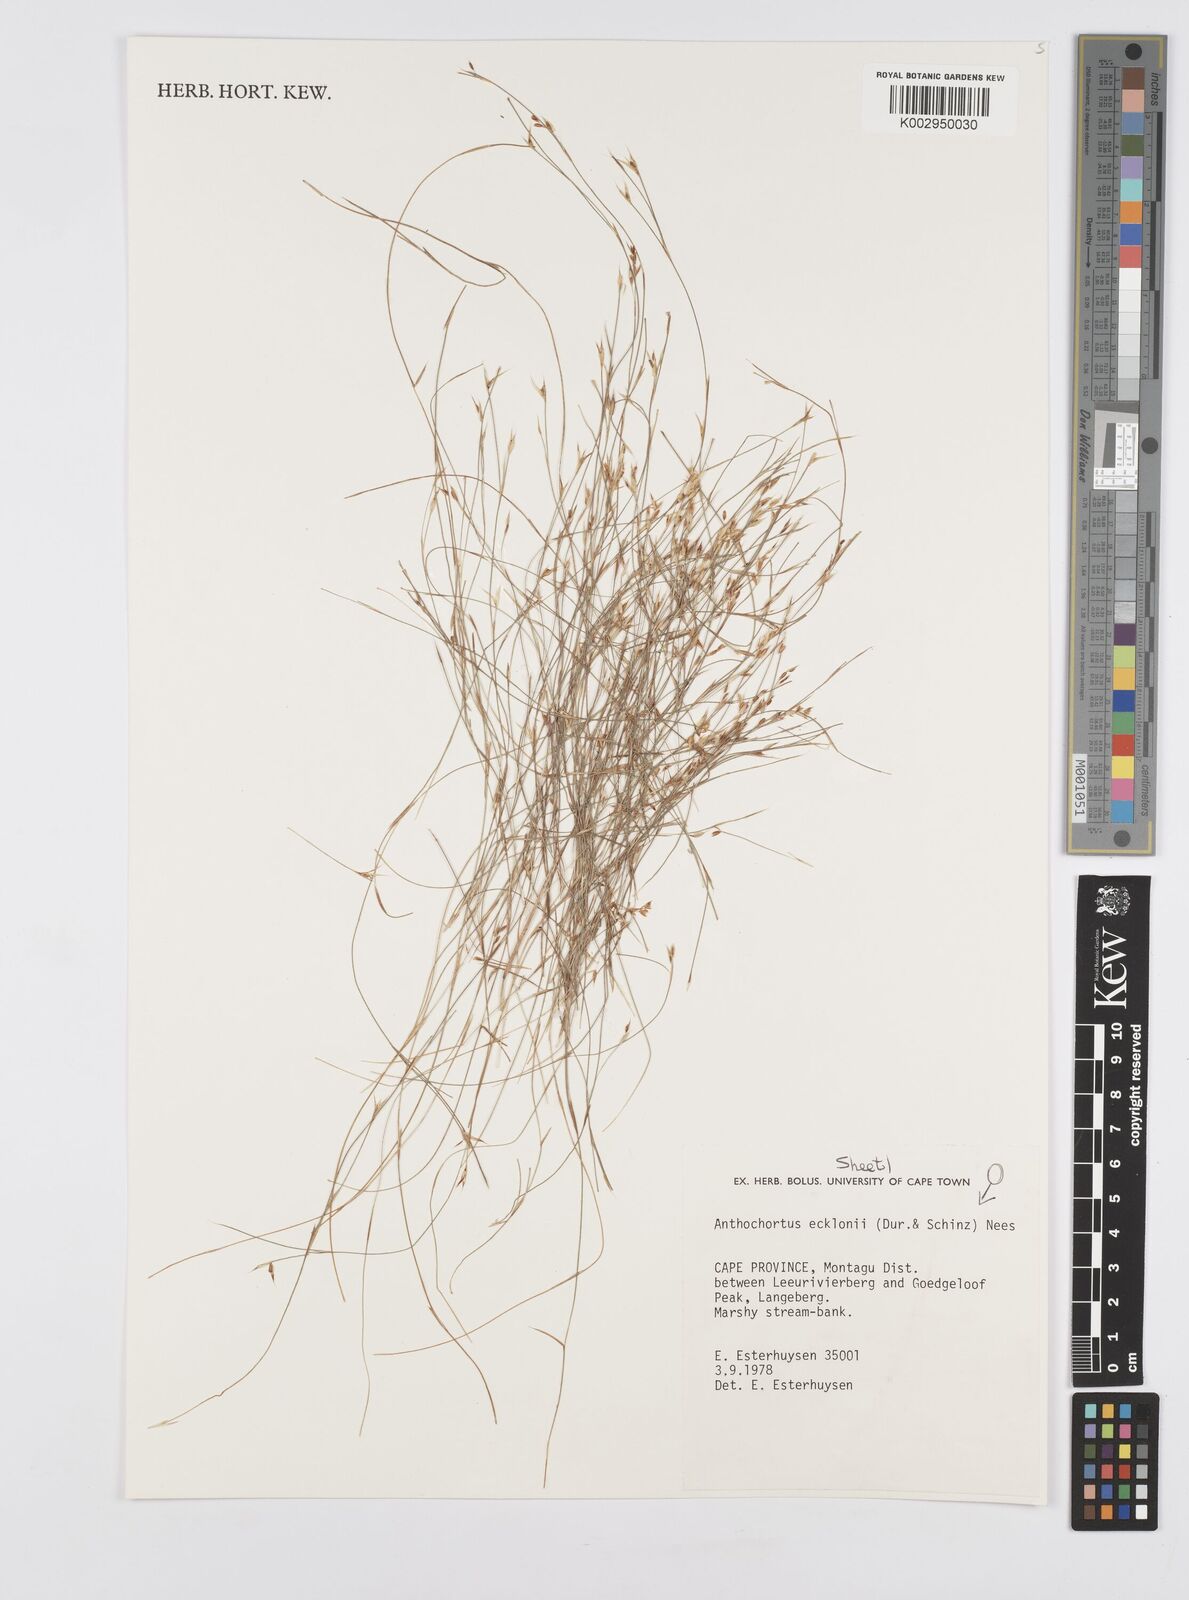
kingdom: Plantae
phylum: Tracheophyta
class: Liliopsida
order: Poales
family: Restionaceae
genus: Anthochortus
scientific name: Anthochortus ecklonii
